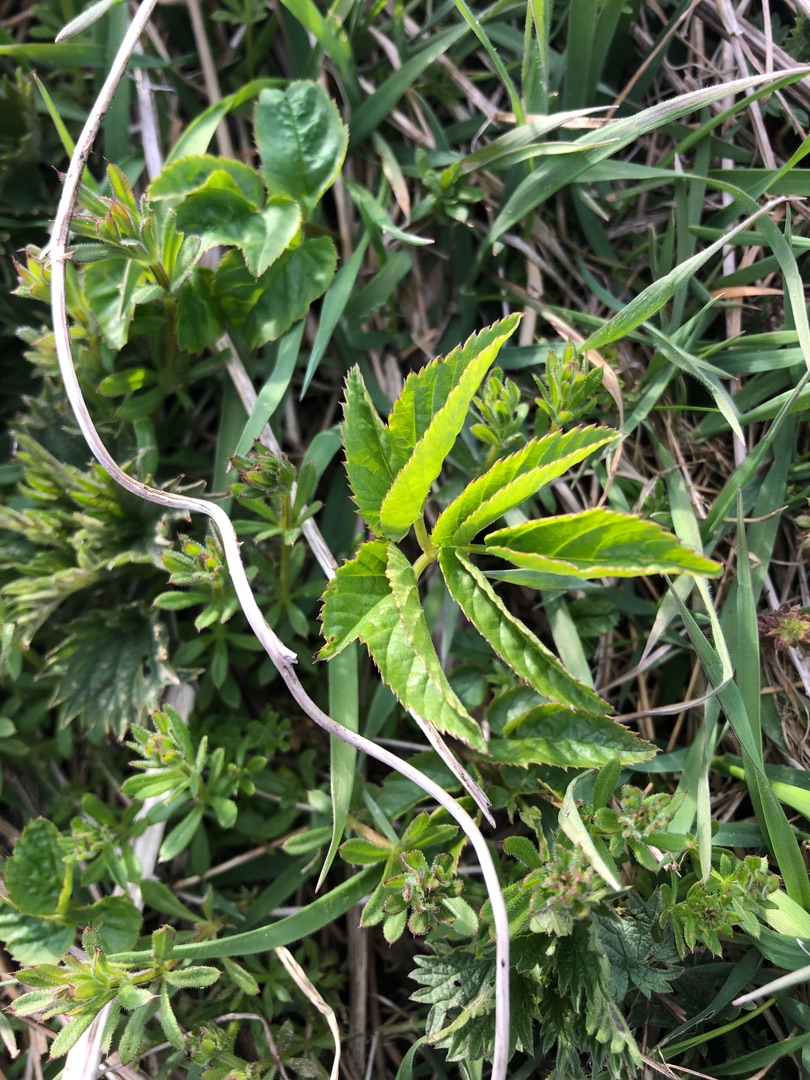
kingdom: Plantae
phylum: Tracheophyta
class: Magnoliopsida
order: Apiales
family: Apiaceae
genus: Aegopodium
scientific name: Aegopodium podagraria
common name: Skvalderkål
